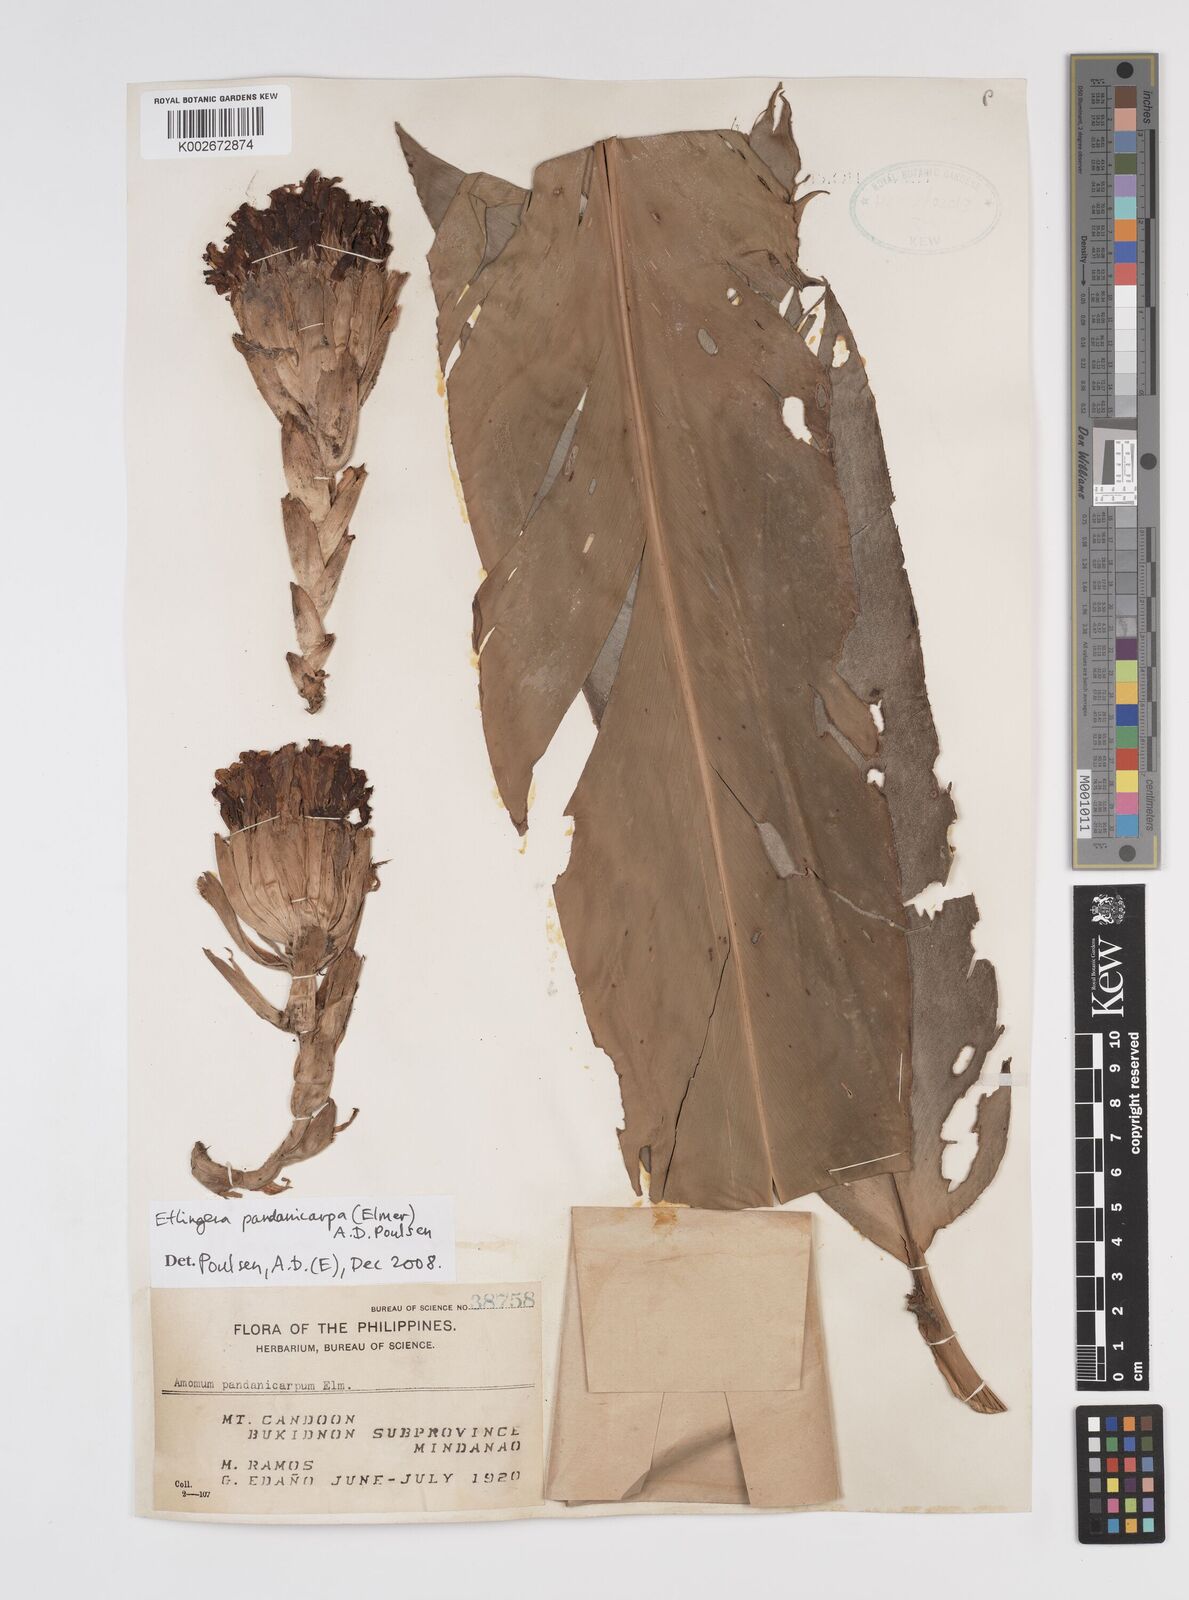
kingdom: Plantae
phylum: Tracheophyta
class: Liliopsida
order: Zingiberales
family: Zingiberaceae
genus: Etlingera
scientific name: Etlingera fimbriobracteata
